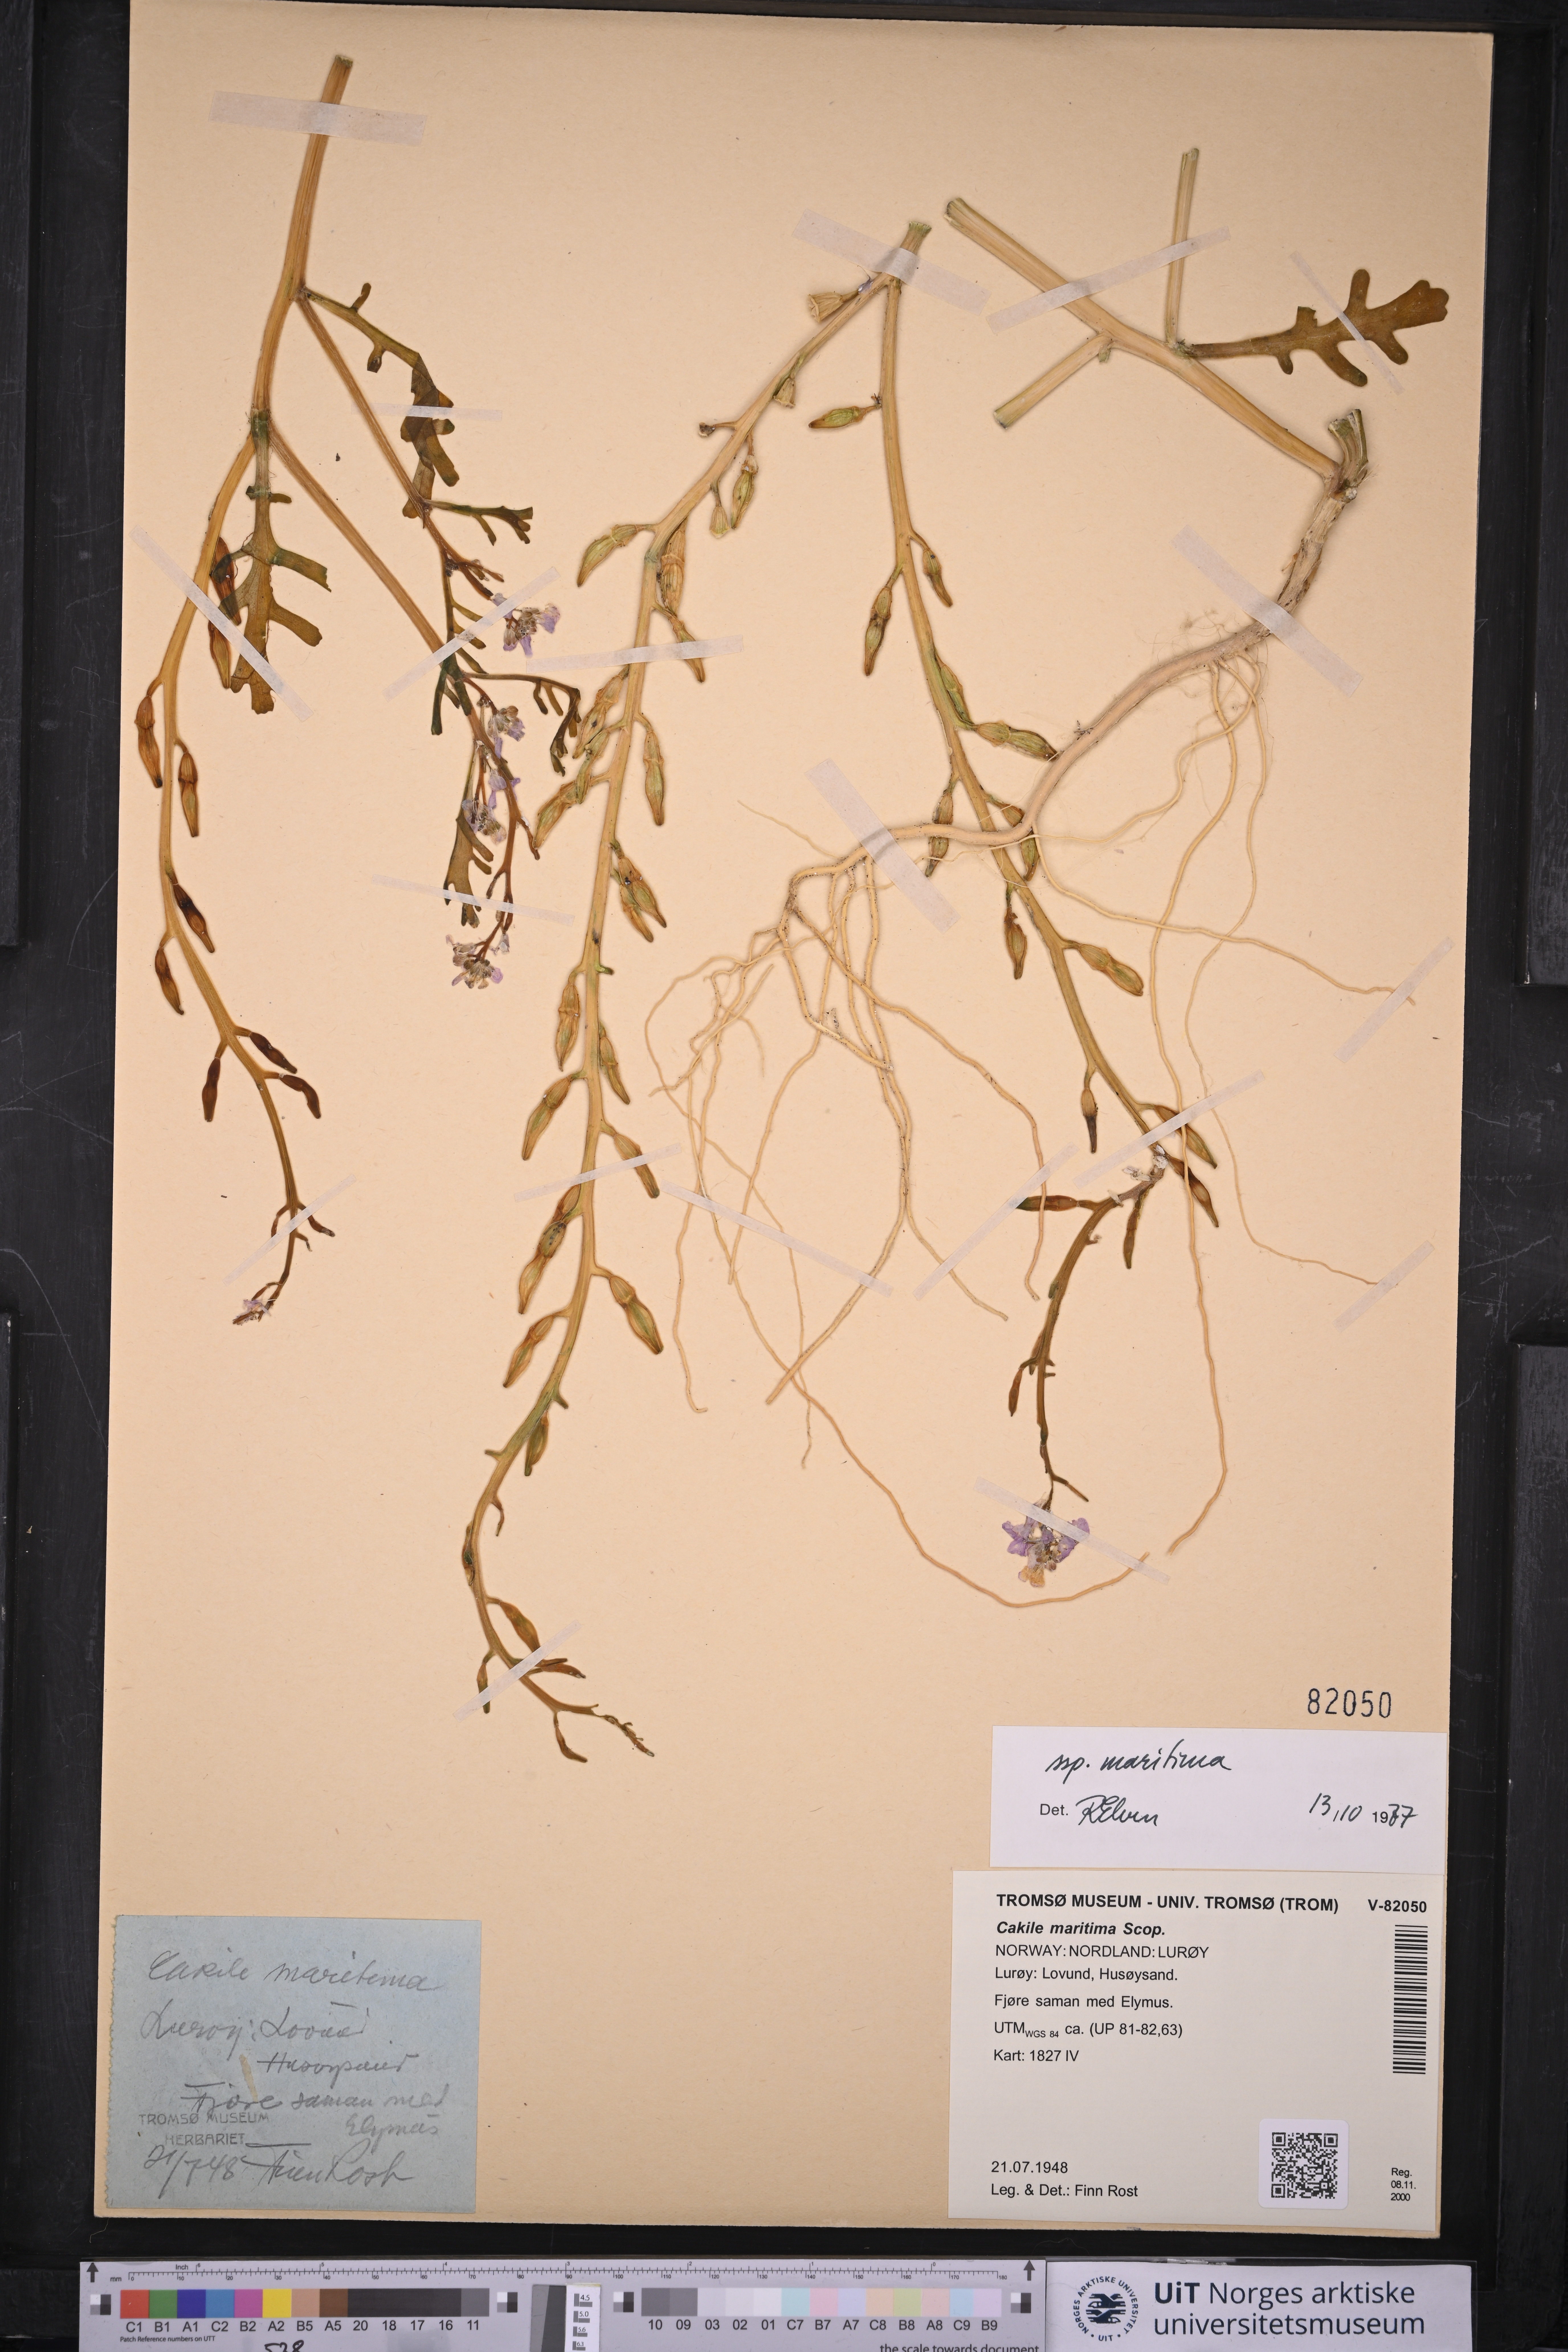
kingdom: Plantae
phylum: Tracheophyta
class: Magnoliopsida
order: Brassicales
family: Brassicaceae
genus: Cakile
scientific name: Cakile maritima
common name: Sea rocket
